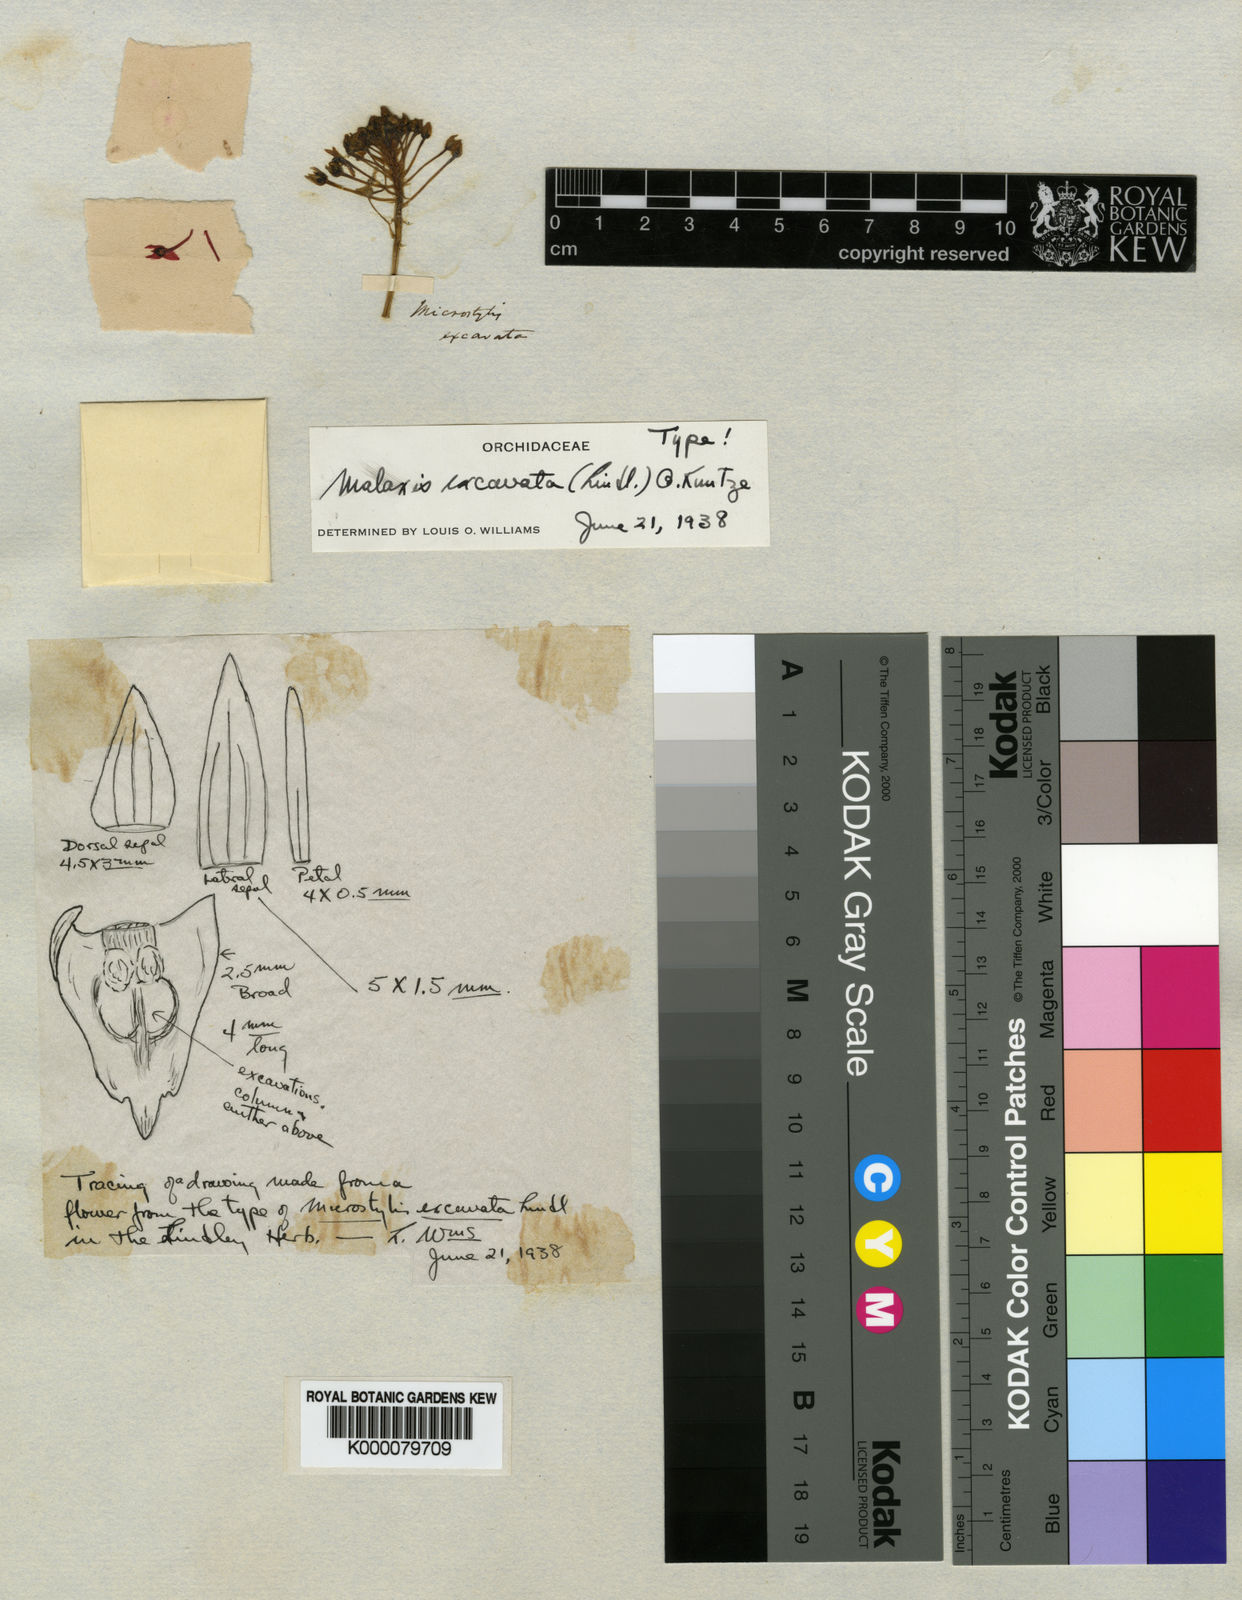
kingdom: Plantae
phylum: Tracheophyta
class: Liliopsida
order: Asparagales
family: Orchidaceae
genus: Malaxis
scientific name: Malaxis excavata
